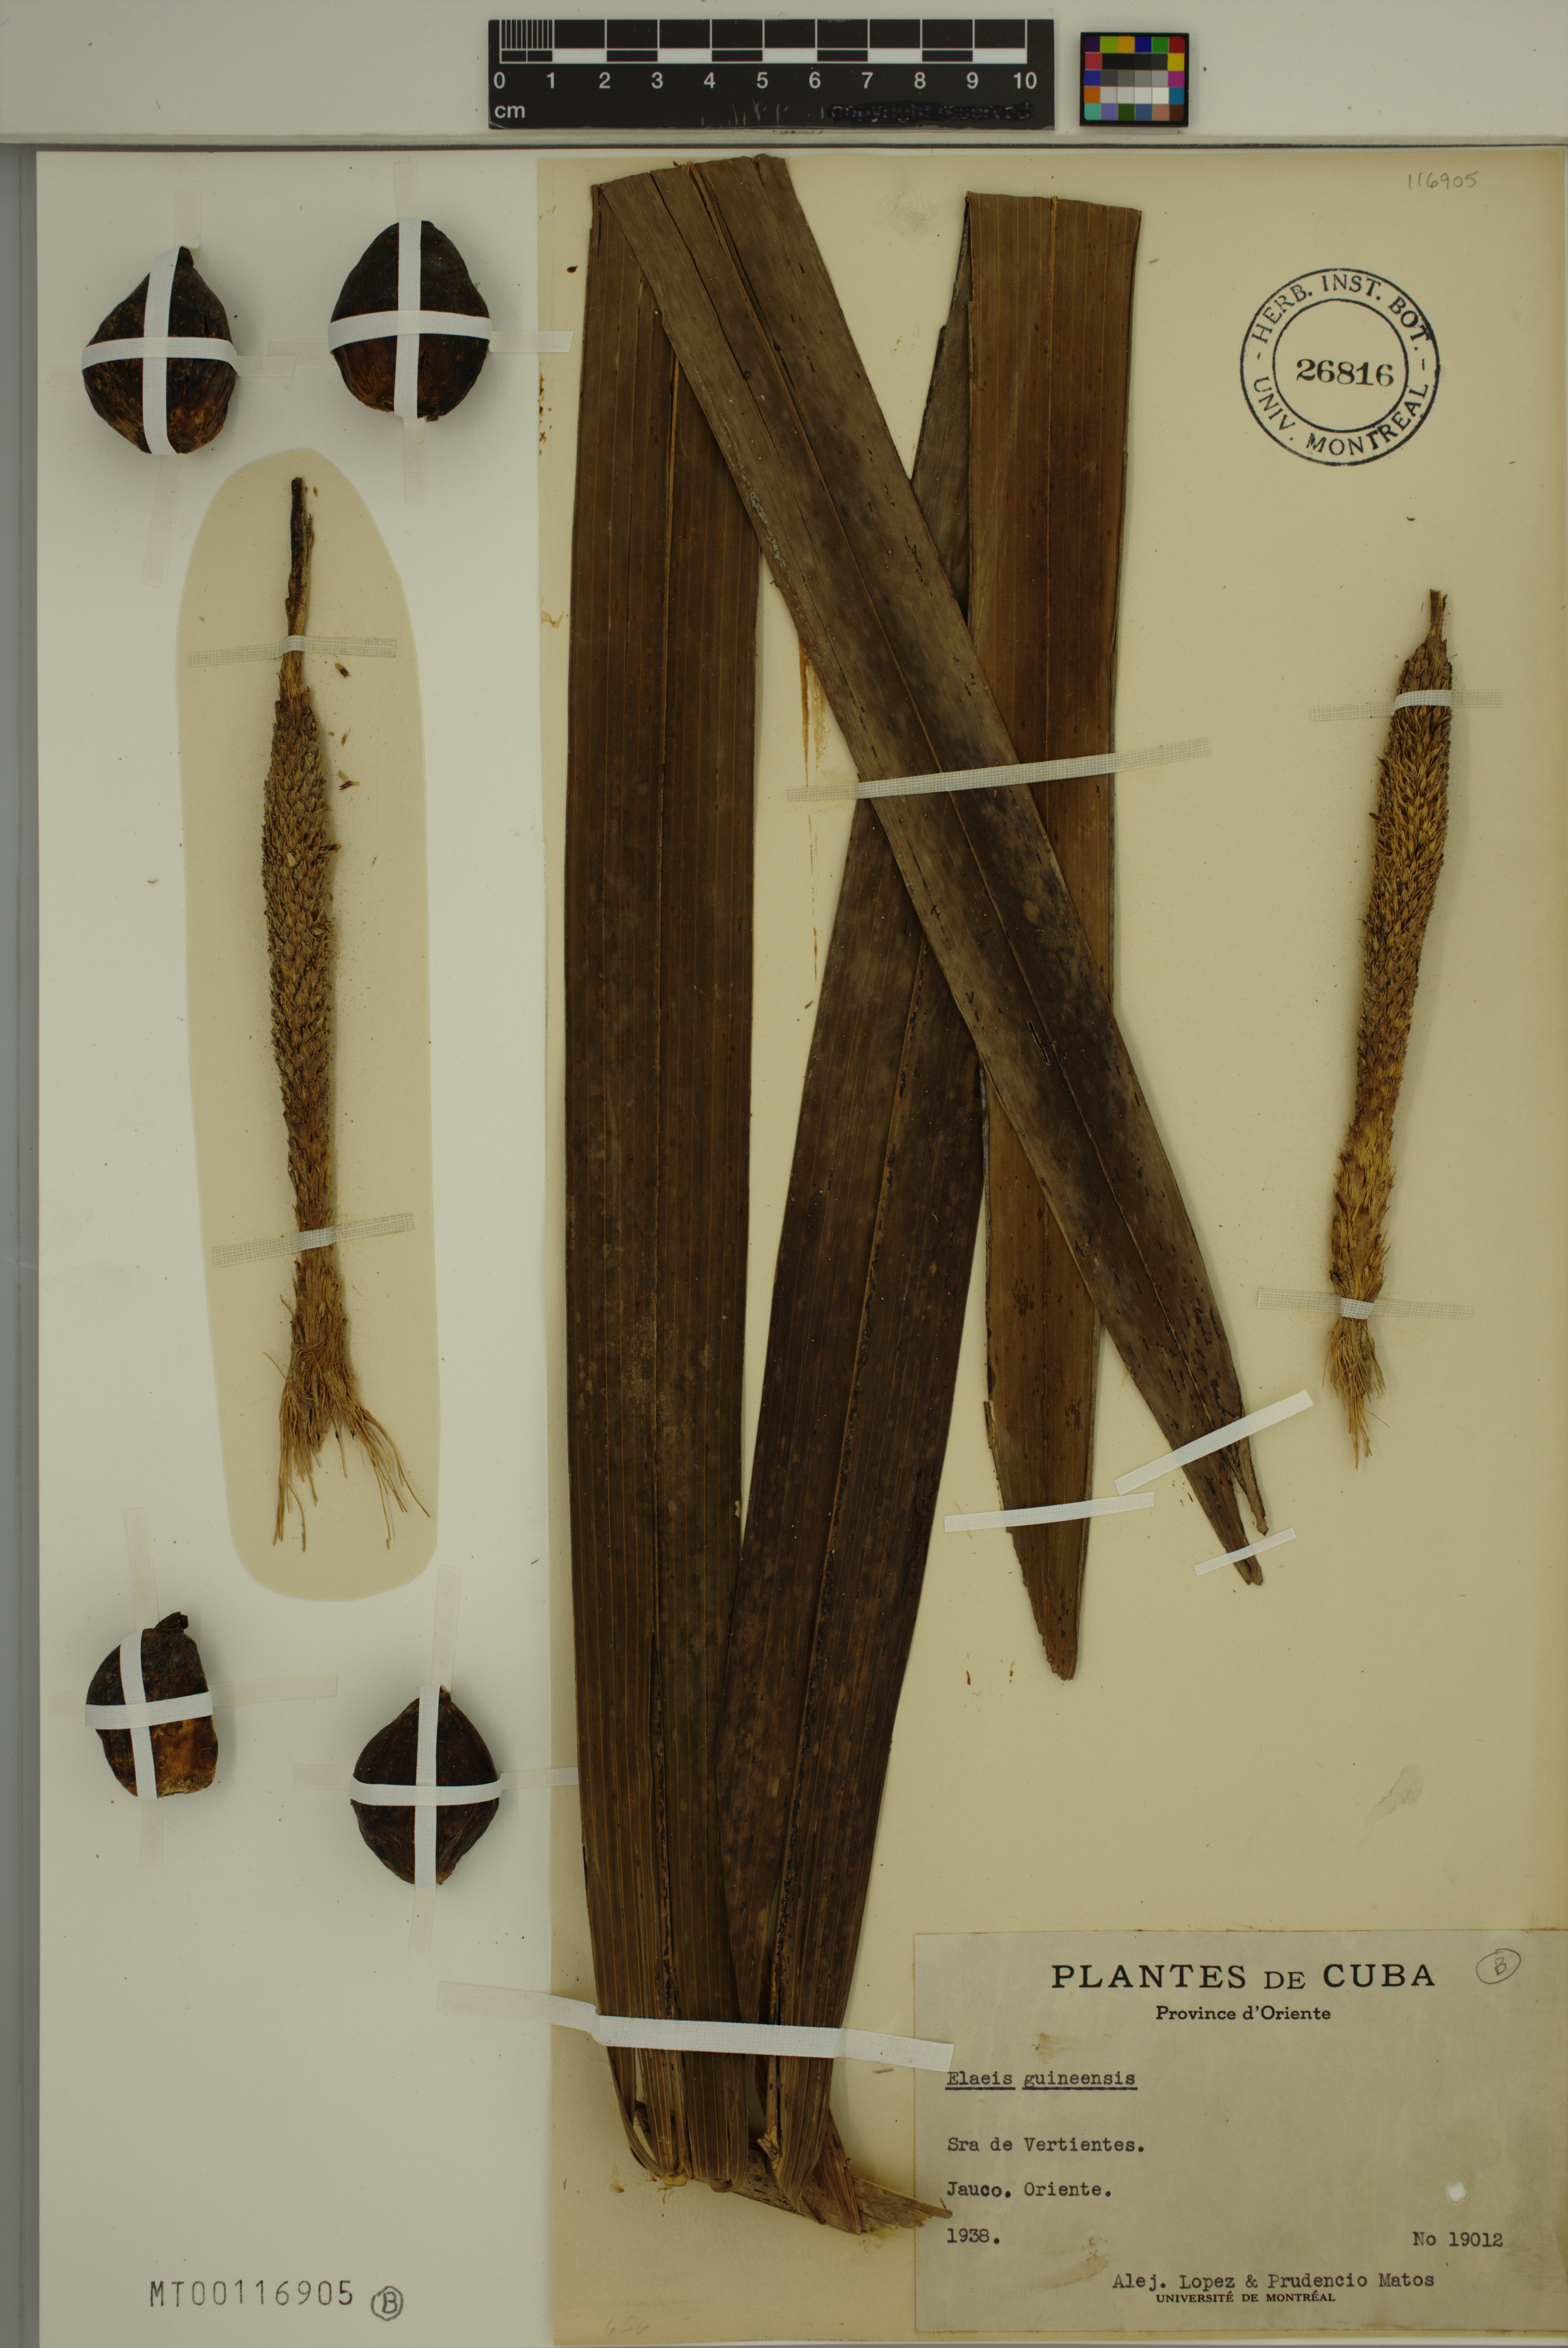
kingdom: Plantae
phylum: Tracheophyta
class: Liliopsida
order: Arecales
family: Arecaceae
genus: Elaeis
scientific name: Elaeis guineensis
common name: Oil palm
